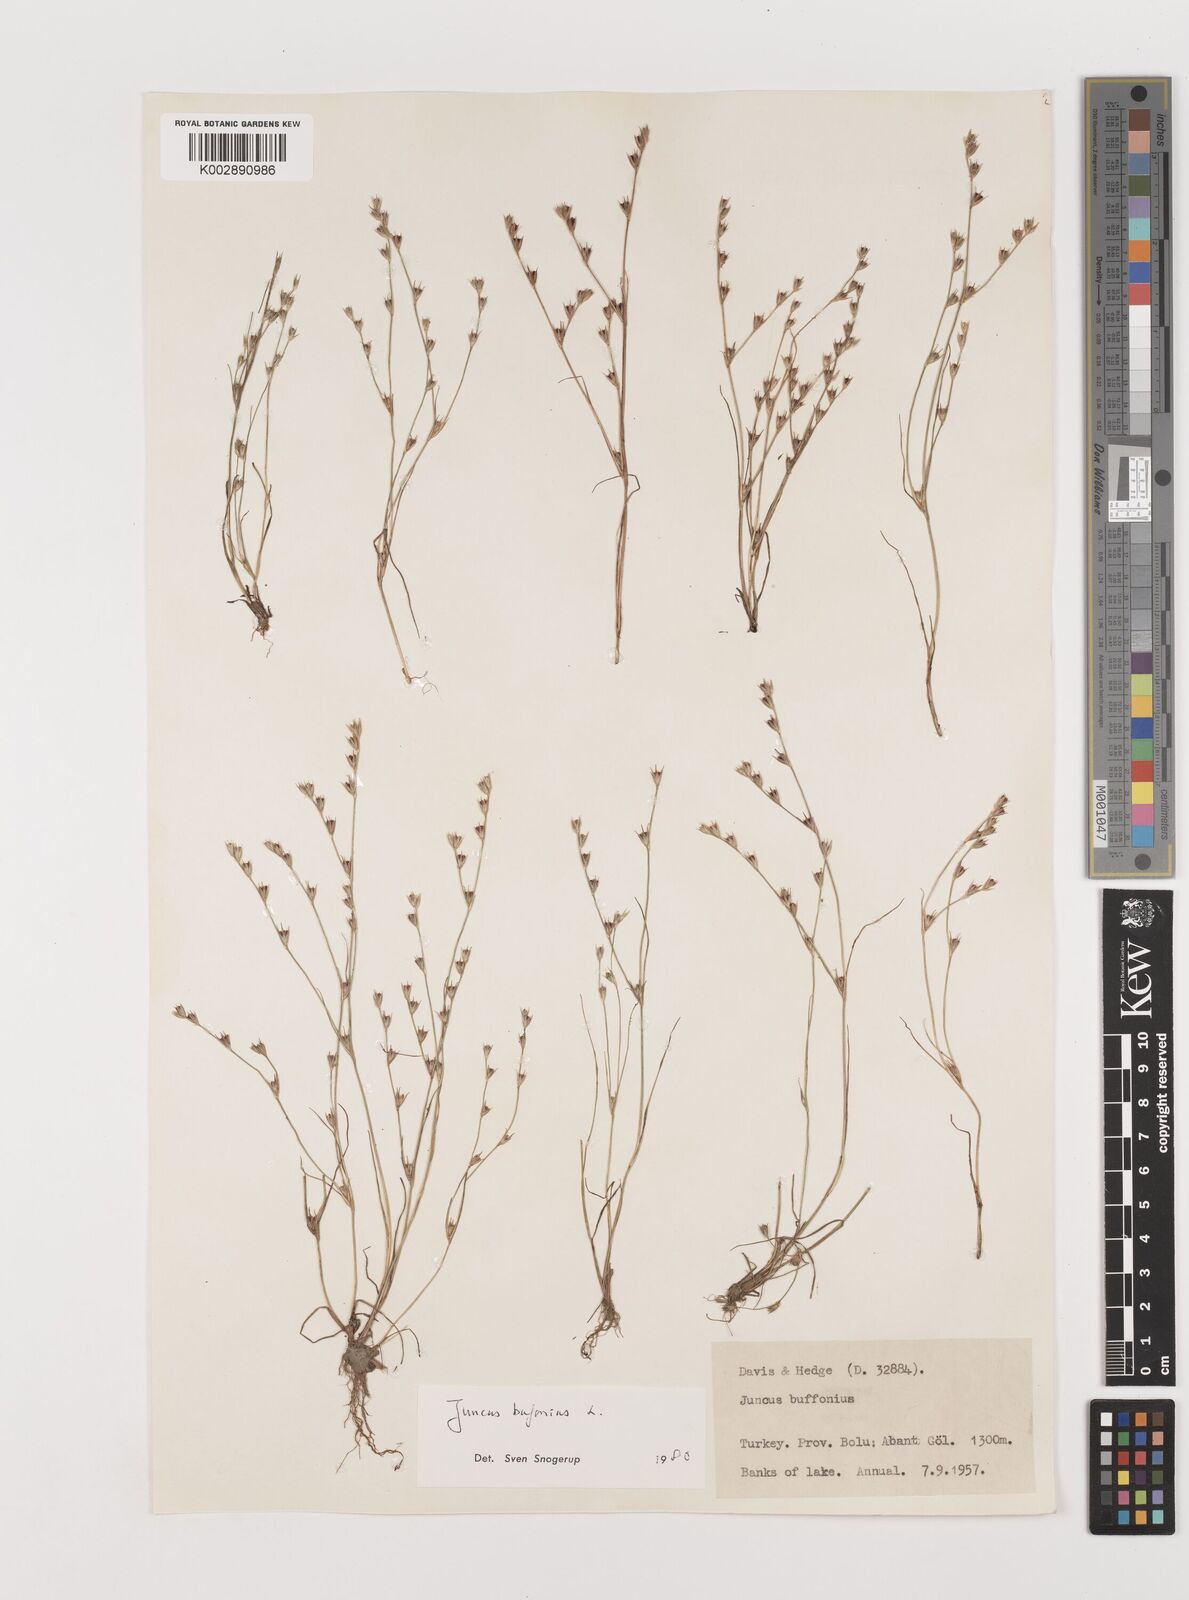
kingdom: Plantae
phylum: Tracheophyta
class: Liliopsida
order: Poales
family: Juncaceae
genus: Juncus
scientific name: Juncus bufonius
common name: Toad rush
